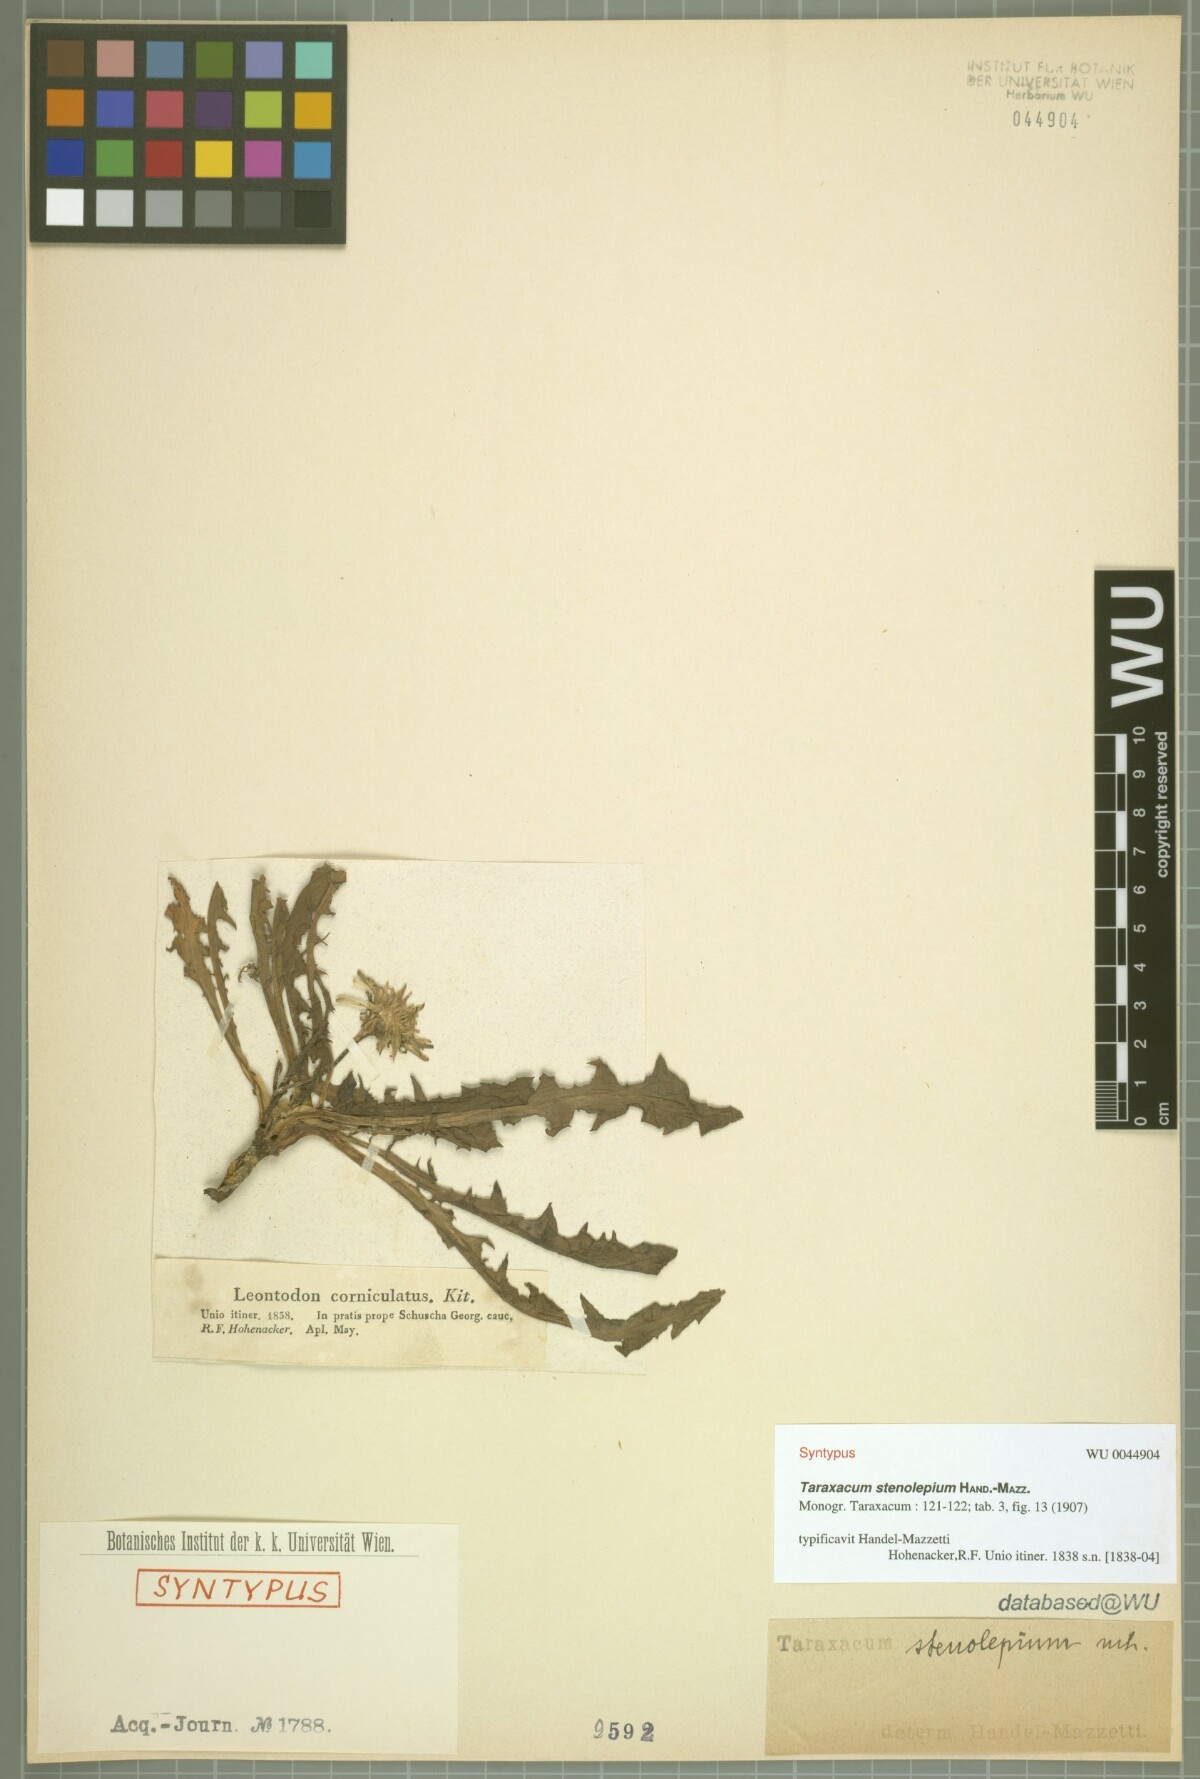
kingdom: Plantae
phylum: Tracheophyta
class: Magnoliopsida
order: Asterales
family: Asteraceae
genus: Taraxacum
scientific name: Taraxacum stenolepium
